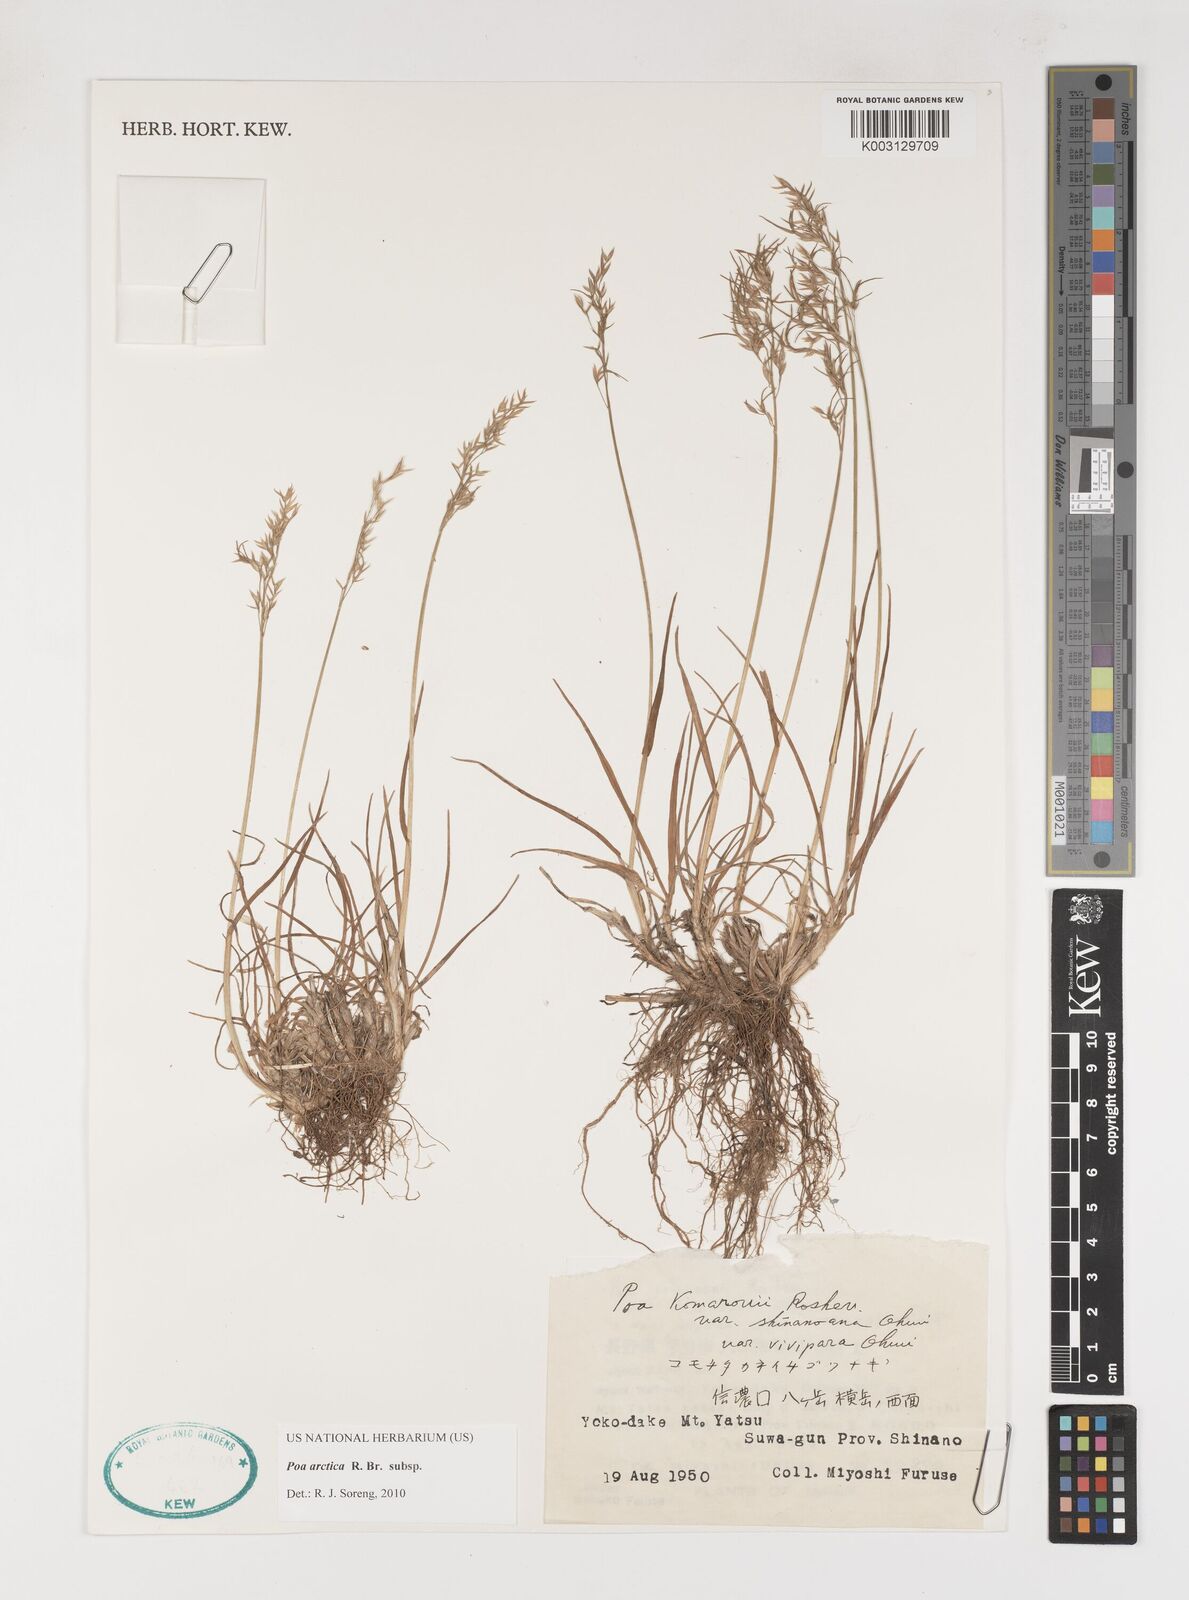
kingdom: Plantae
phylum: Tracheophyta
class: Liliopsida
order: Poales
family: Poaceae
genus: Poa
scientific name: Poa arctica
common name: Arctic bluegrass
